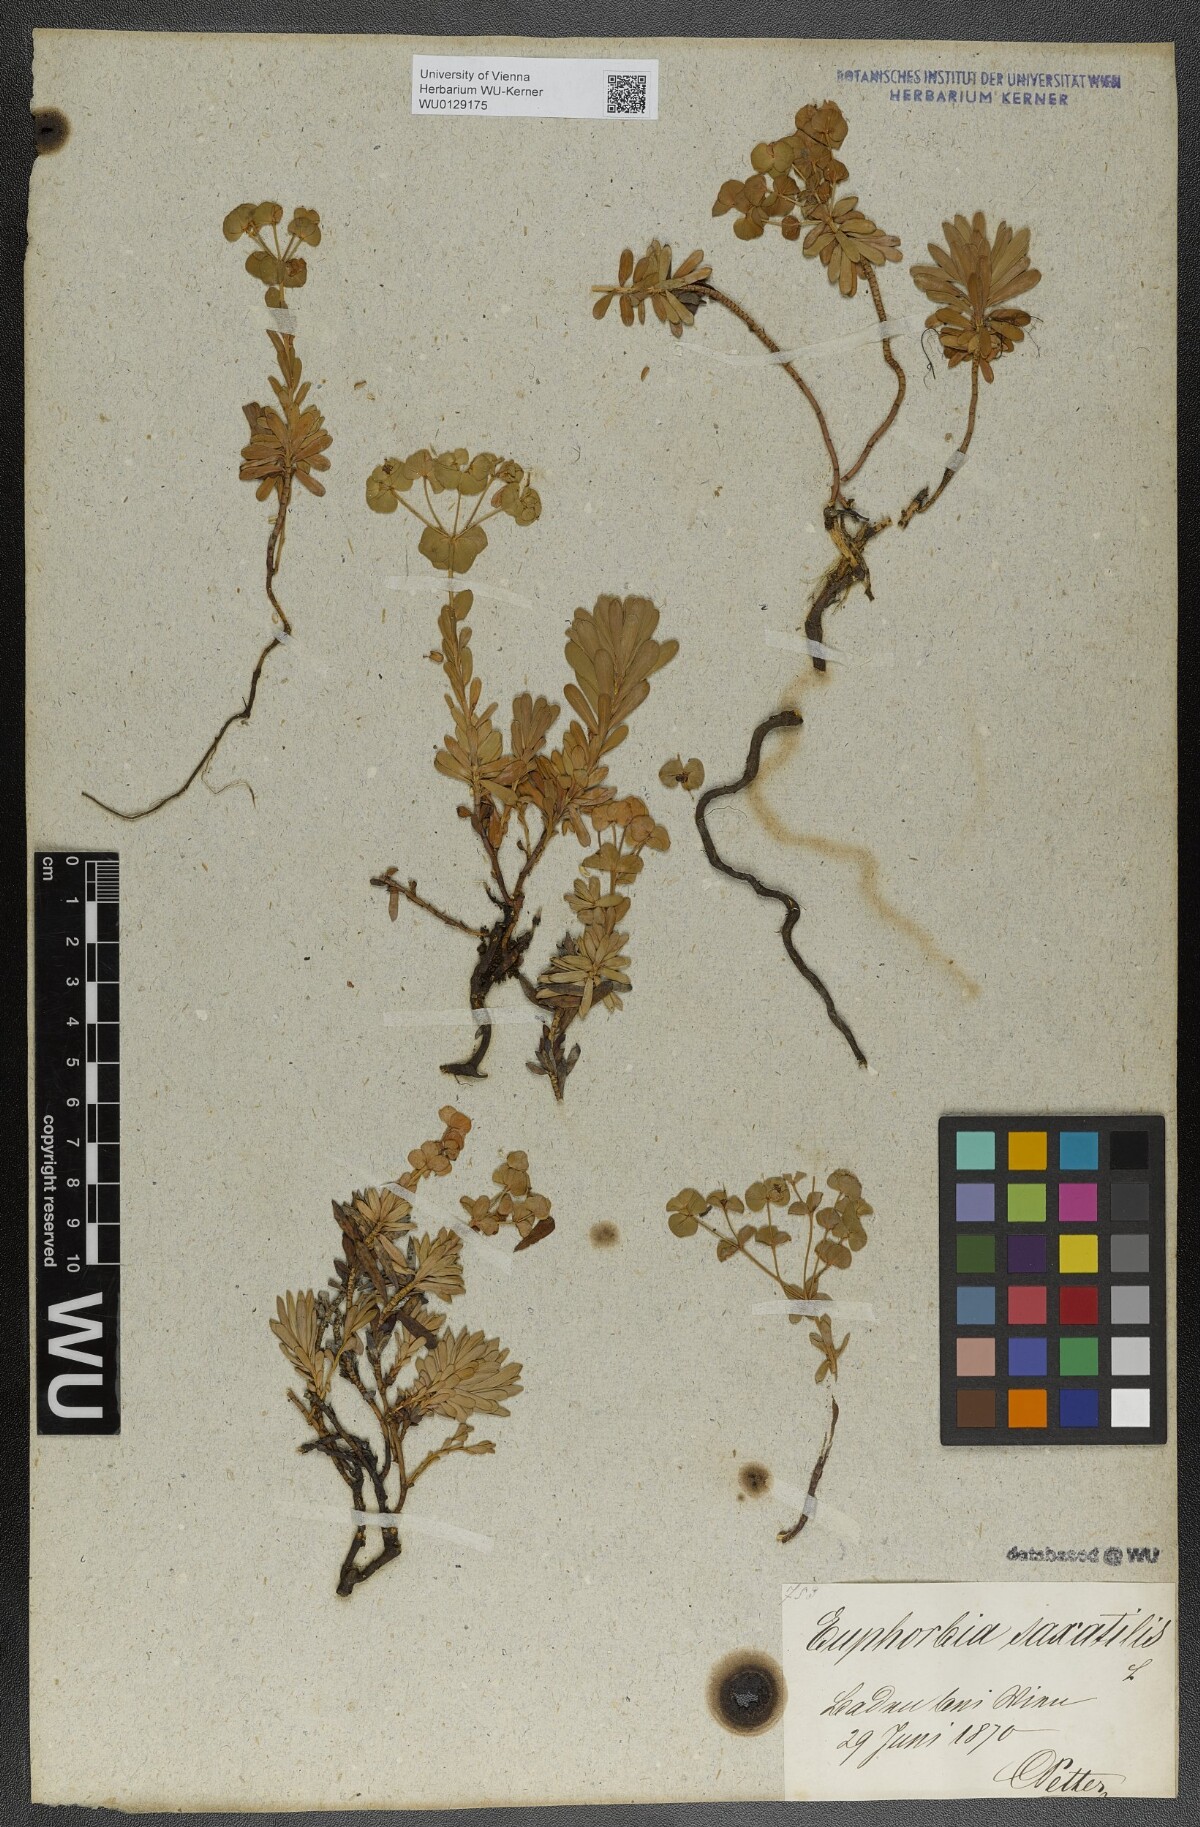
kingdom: Plantae
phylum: Tracheophyta
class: Magnoliopsida
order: Malpighiales
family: Euphorbiaceae
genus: Euphorbia
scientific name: Euphorbia saxatilis
